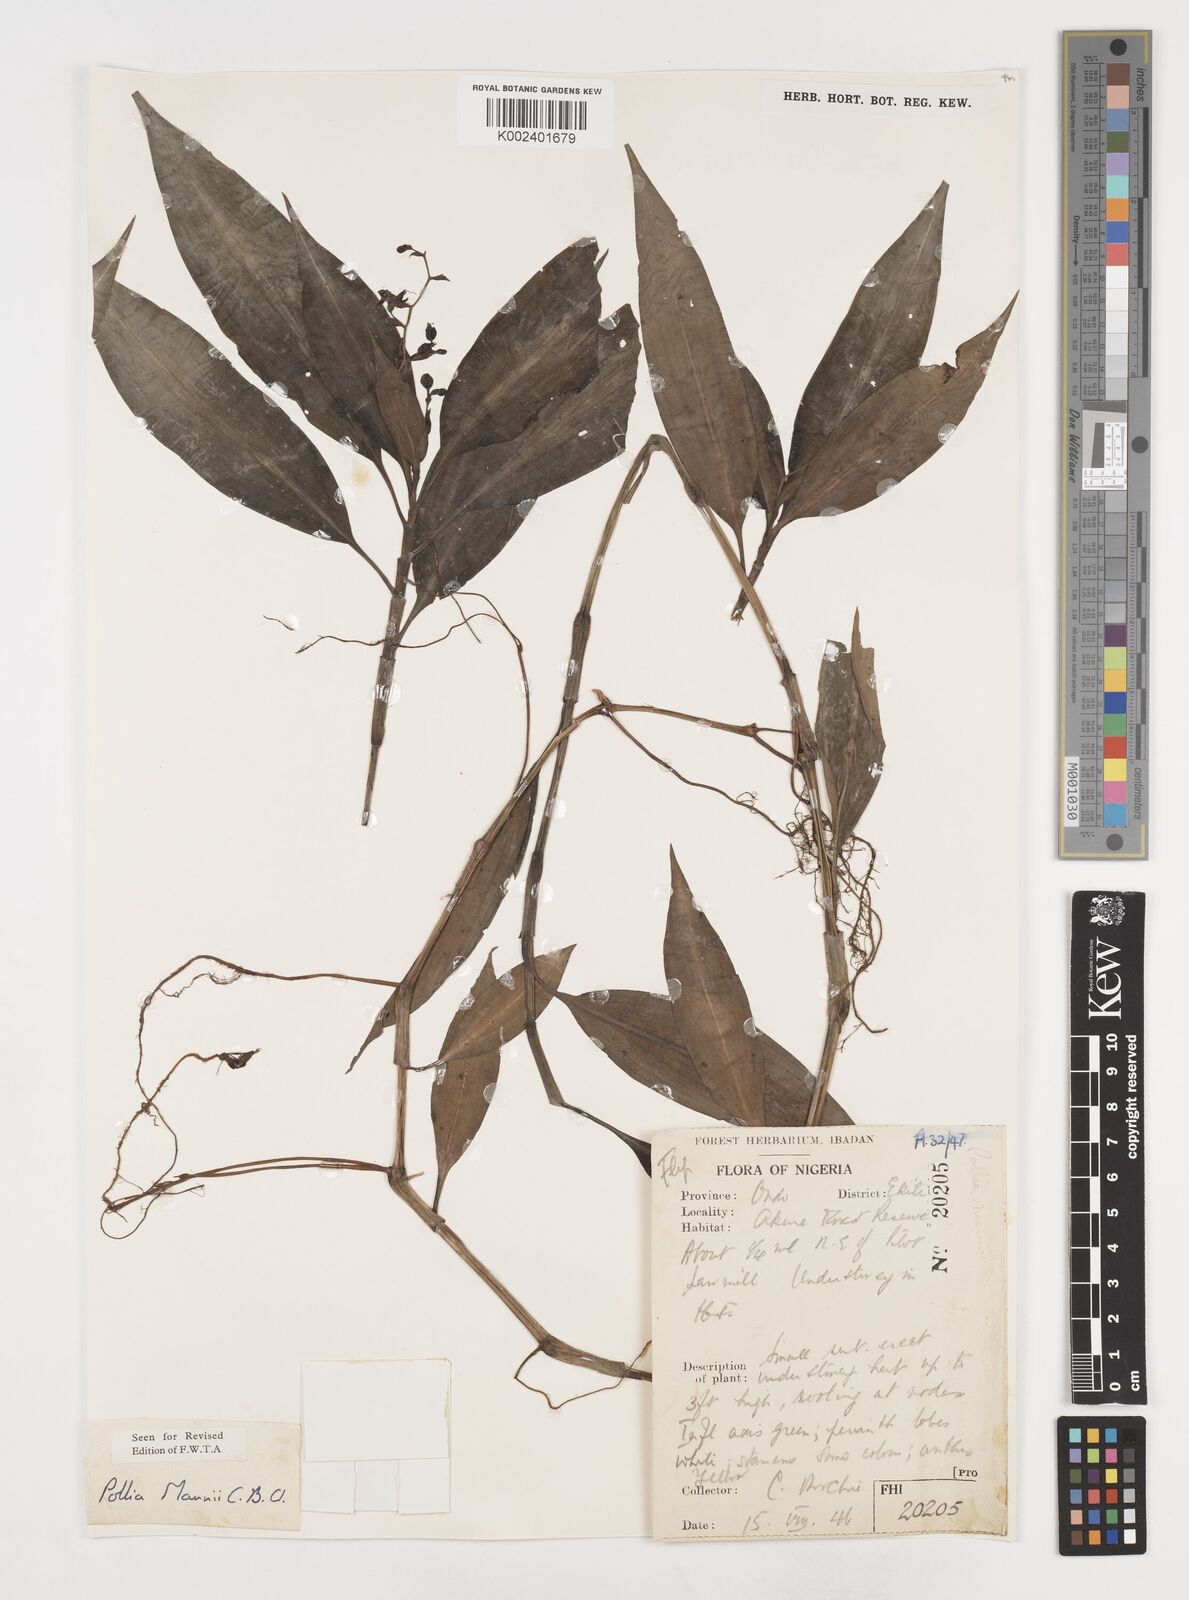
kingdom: Plantae
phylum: Tracheophyta
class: Liliopsida
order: Commelinales
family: Commelinaceae
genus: Pollia
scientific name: Pollia mannii
